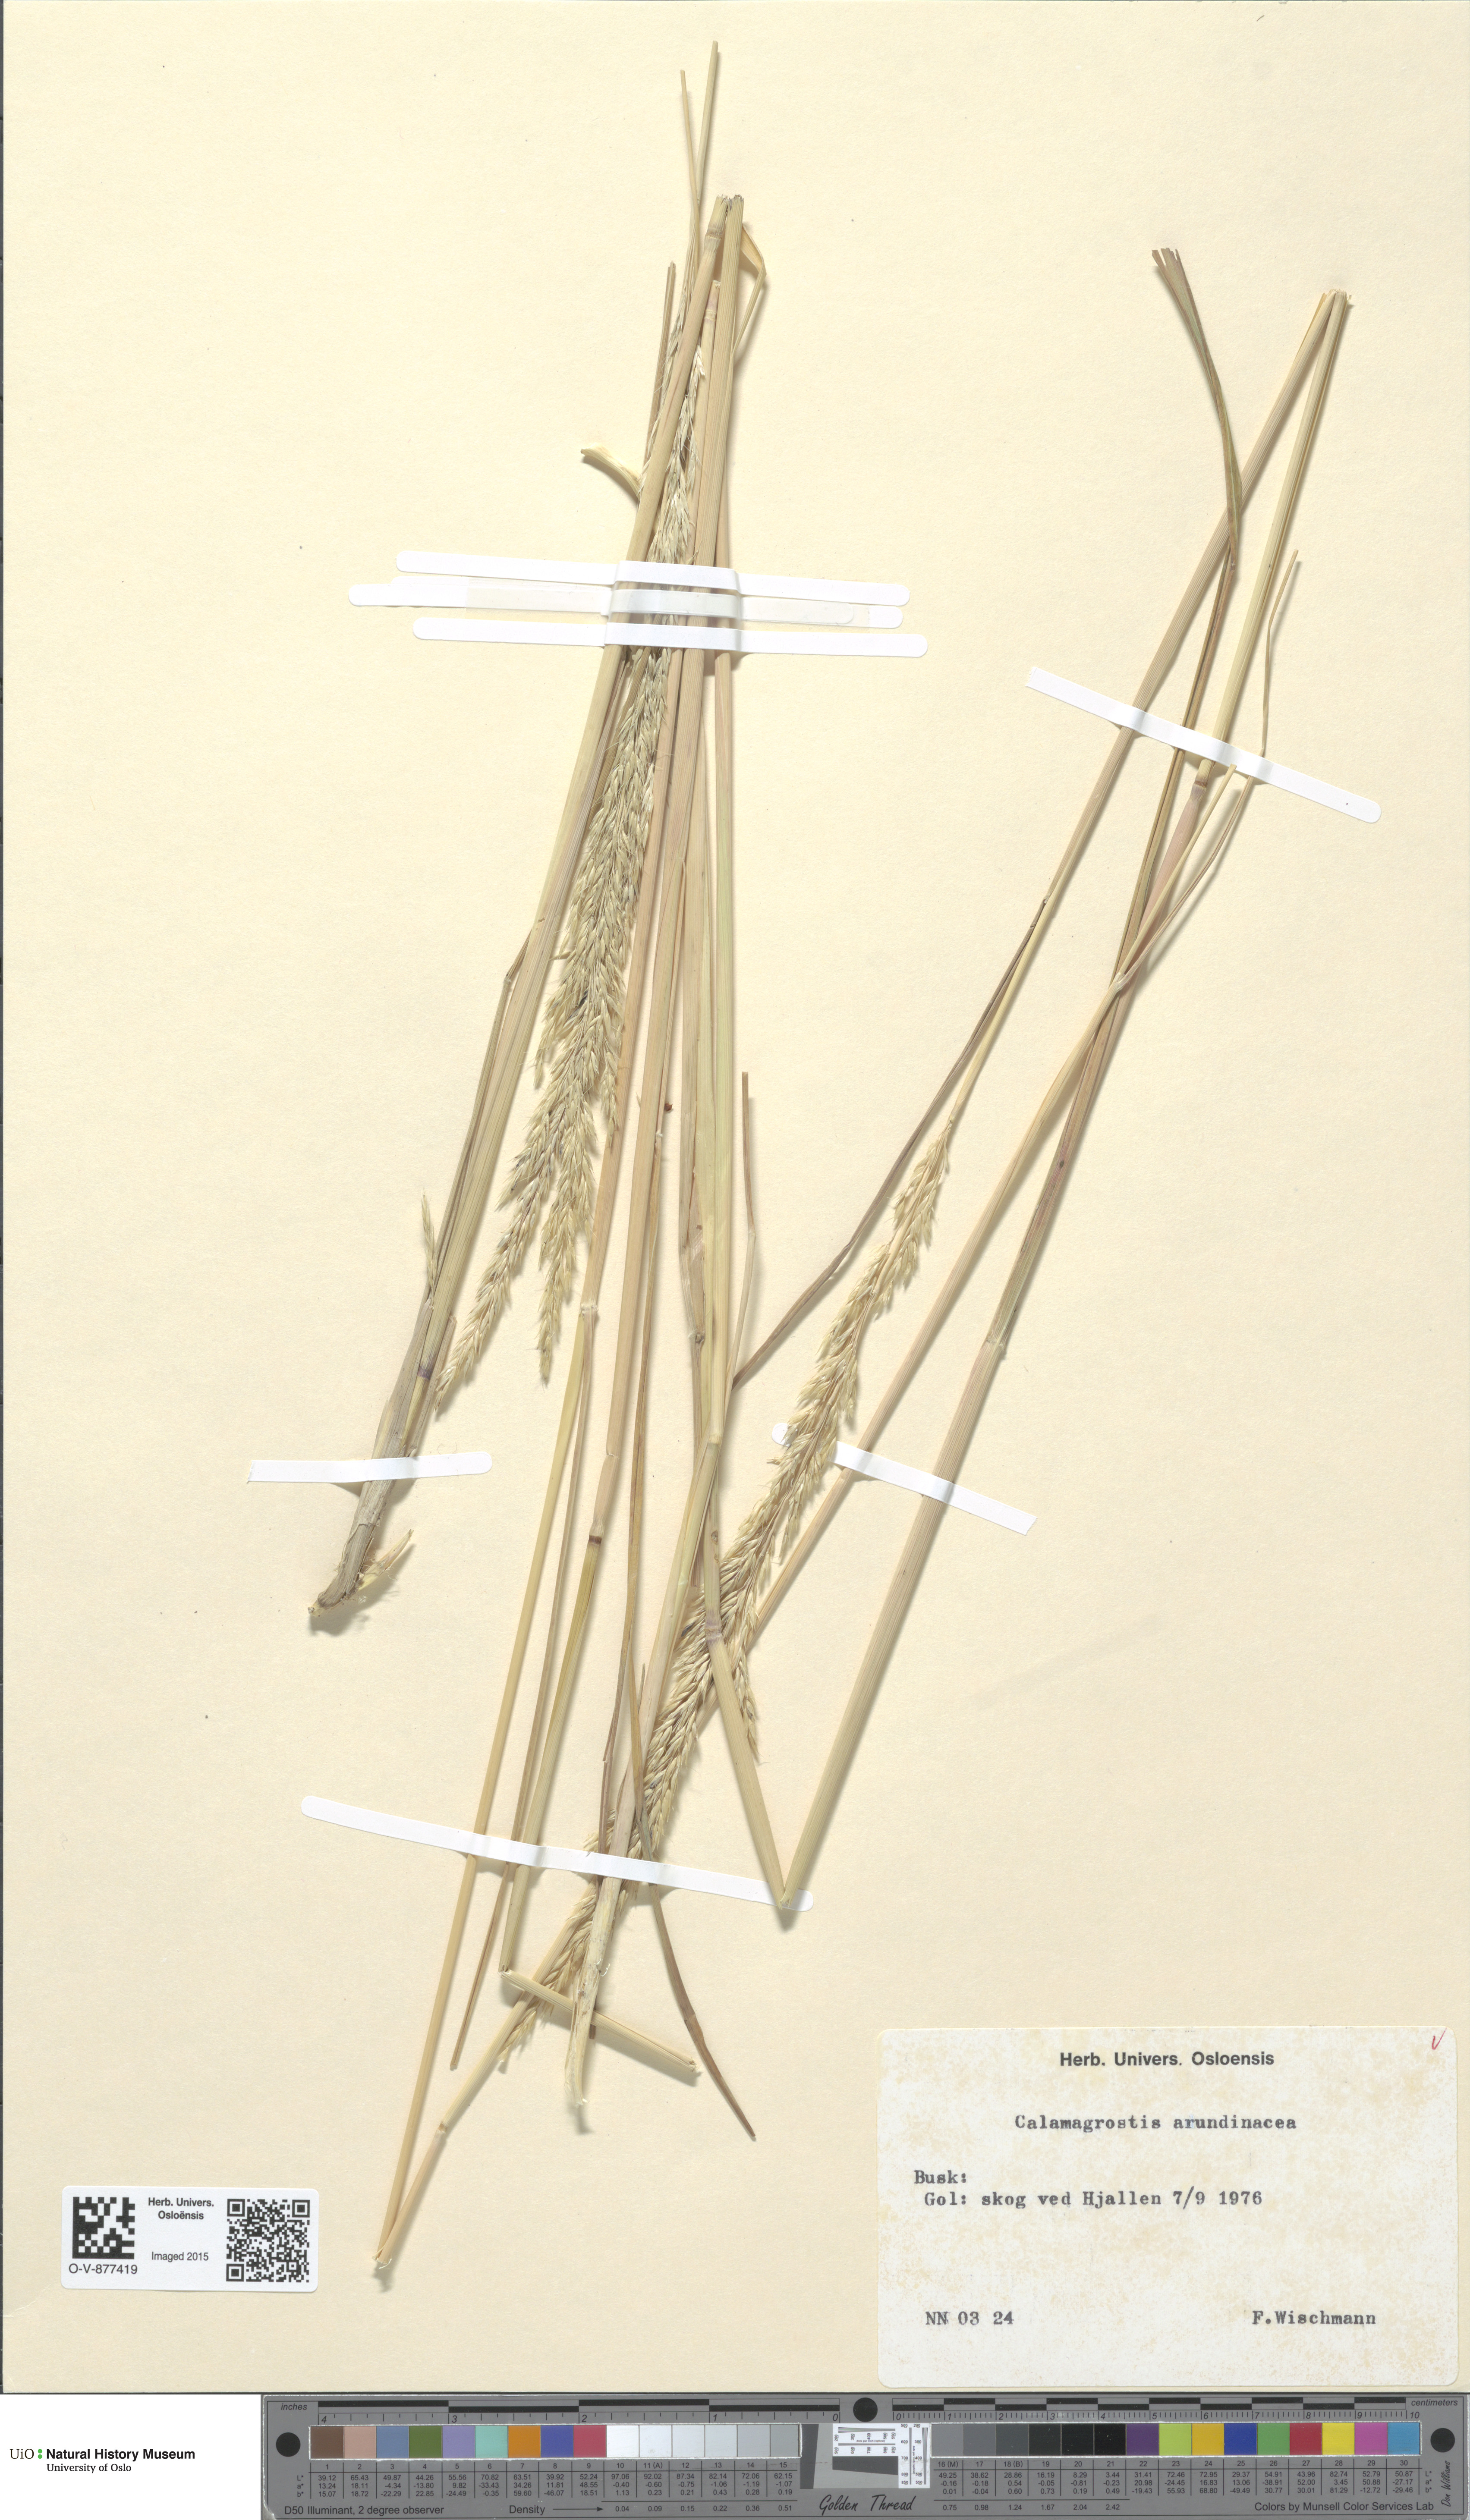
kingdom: Plantae
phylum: Tracheophyta
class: Liliopsida
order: Poales
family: Poaceae
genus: Calamagrostis
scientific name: Calamagrostis arundinacea
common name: Metskastik
